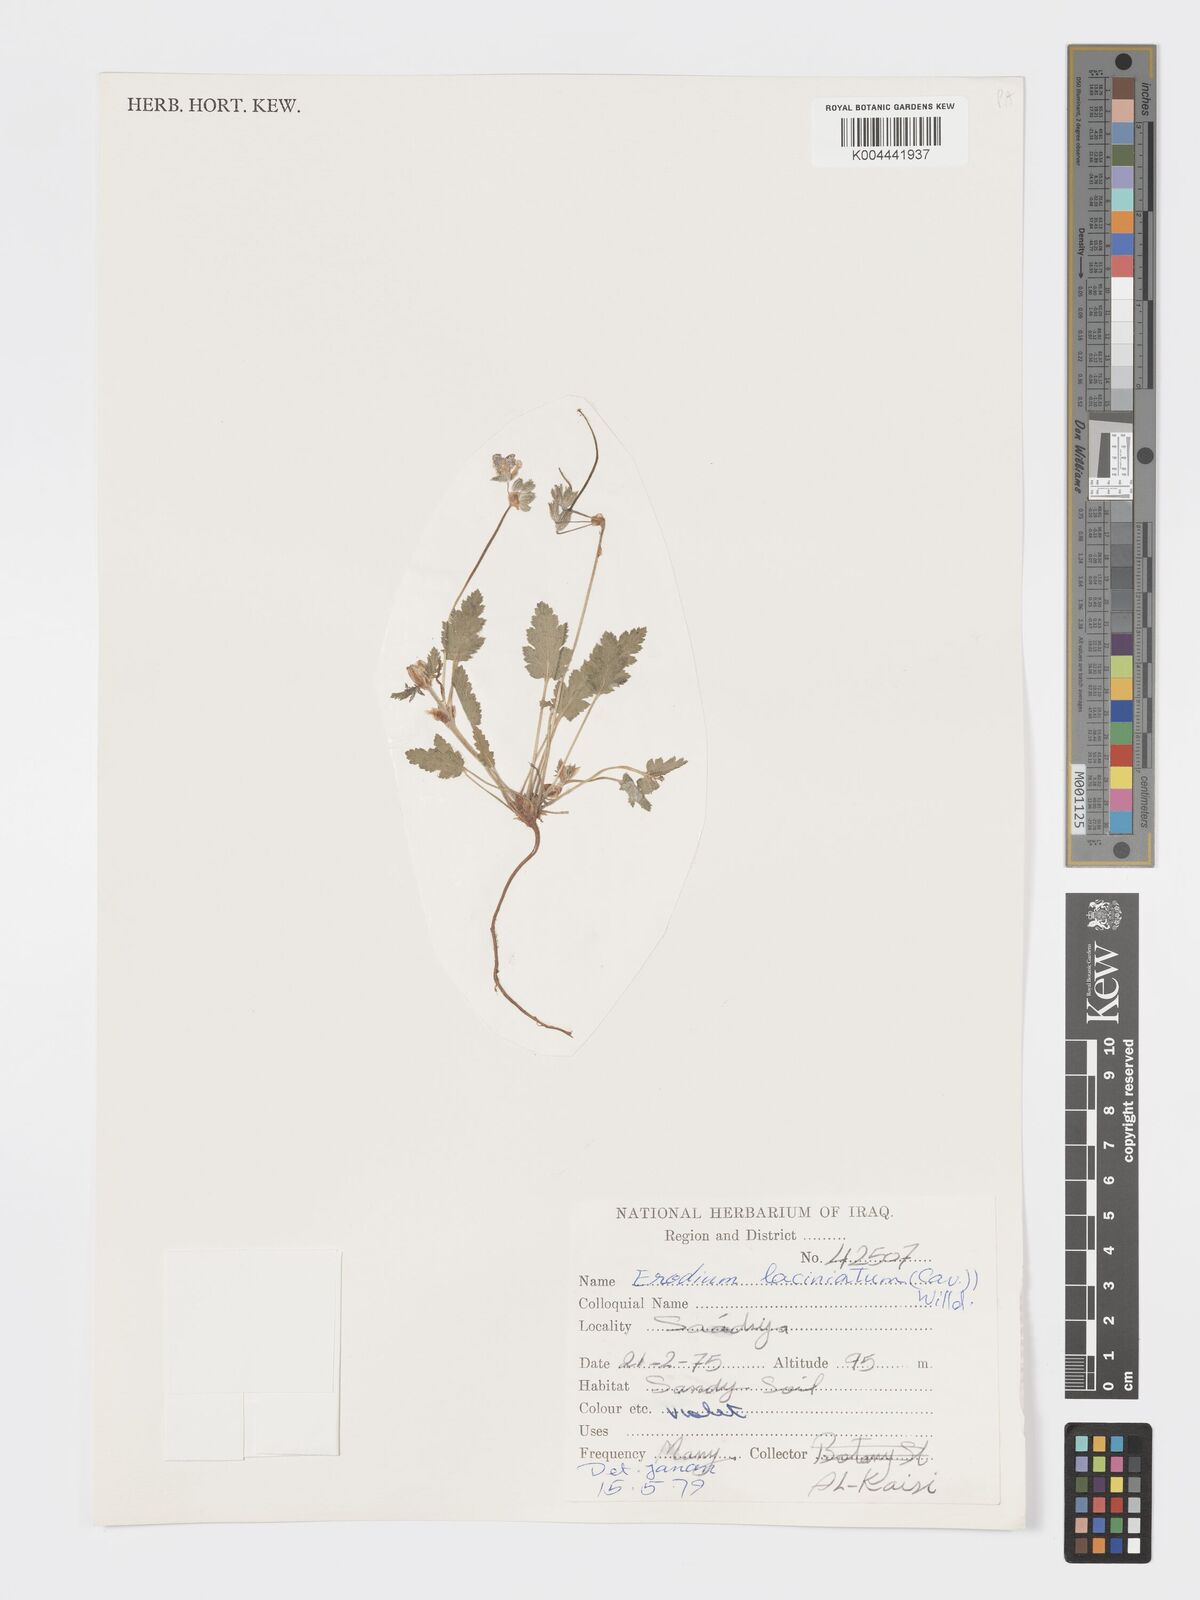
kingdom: Plantae
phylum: Tracheophyta
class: Magnoliopsida
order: Geraniales
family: Geraniaceae
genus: Erodium
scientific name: Erodium laciniatum
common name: Cutleaf stork's bill
